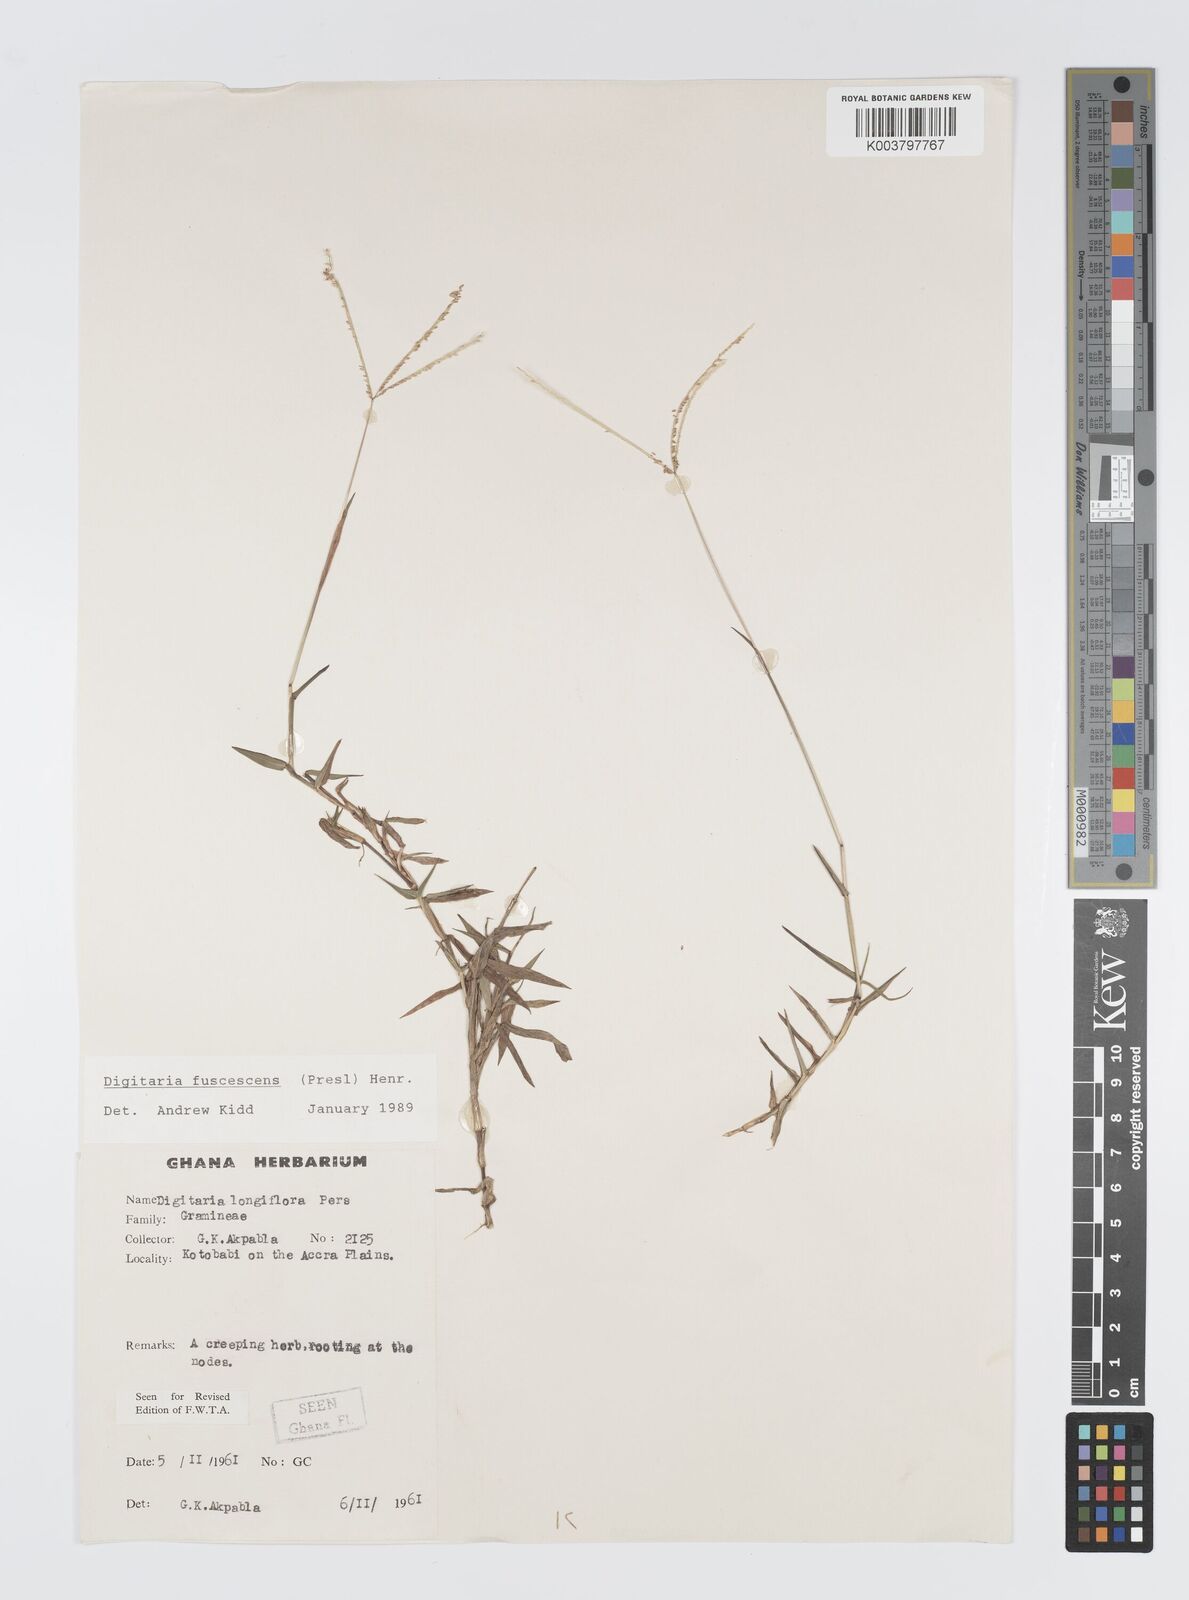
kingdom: Plantae
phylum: Tracheophyta
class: Liliopsida
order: Poales
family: Poaceae
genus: Digitaria
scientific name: Digitaria fuscescens
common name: Yellow crabgrass
